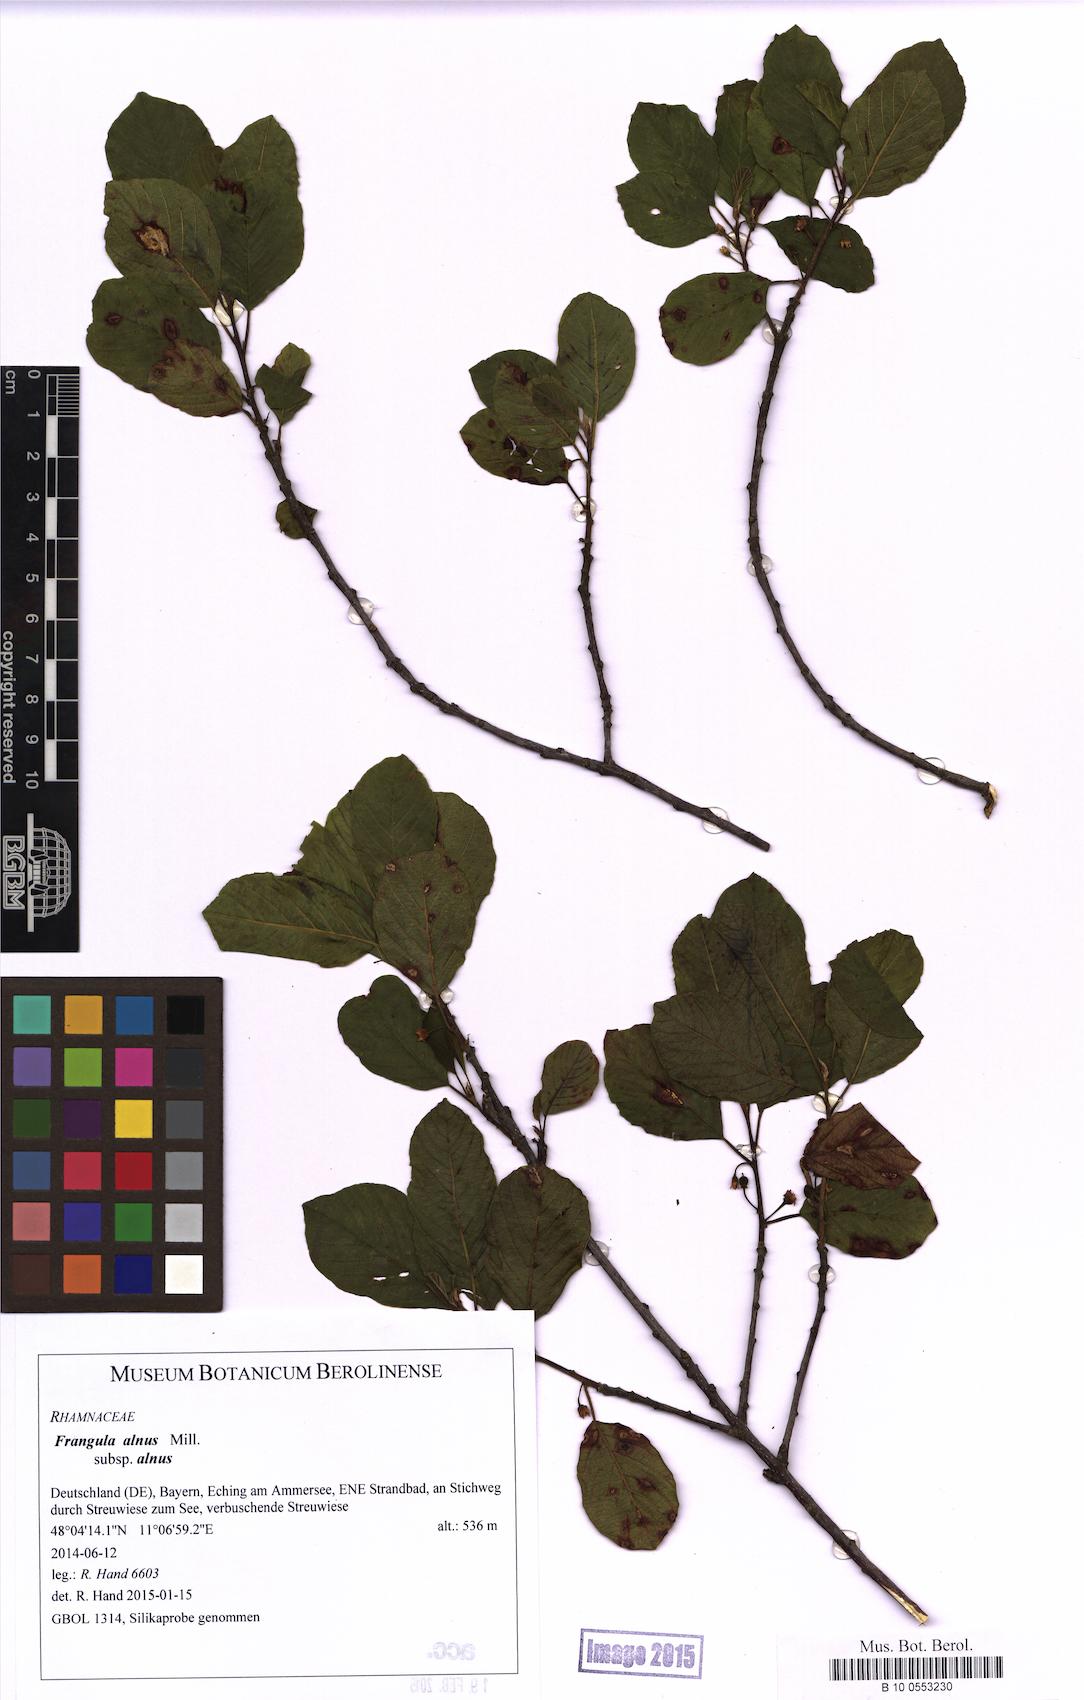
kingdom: Plantae
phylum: Tracheophyta
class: Magnoliopsida
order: Rosales
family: Rhamnaceae
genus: Frangula
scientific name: Frangula alnus
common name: Alder buckthorn
